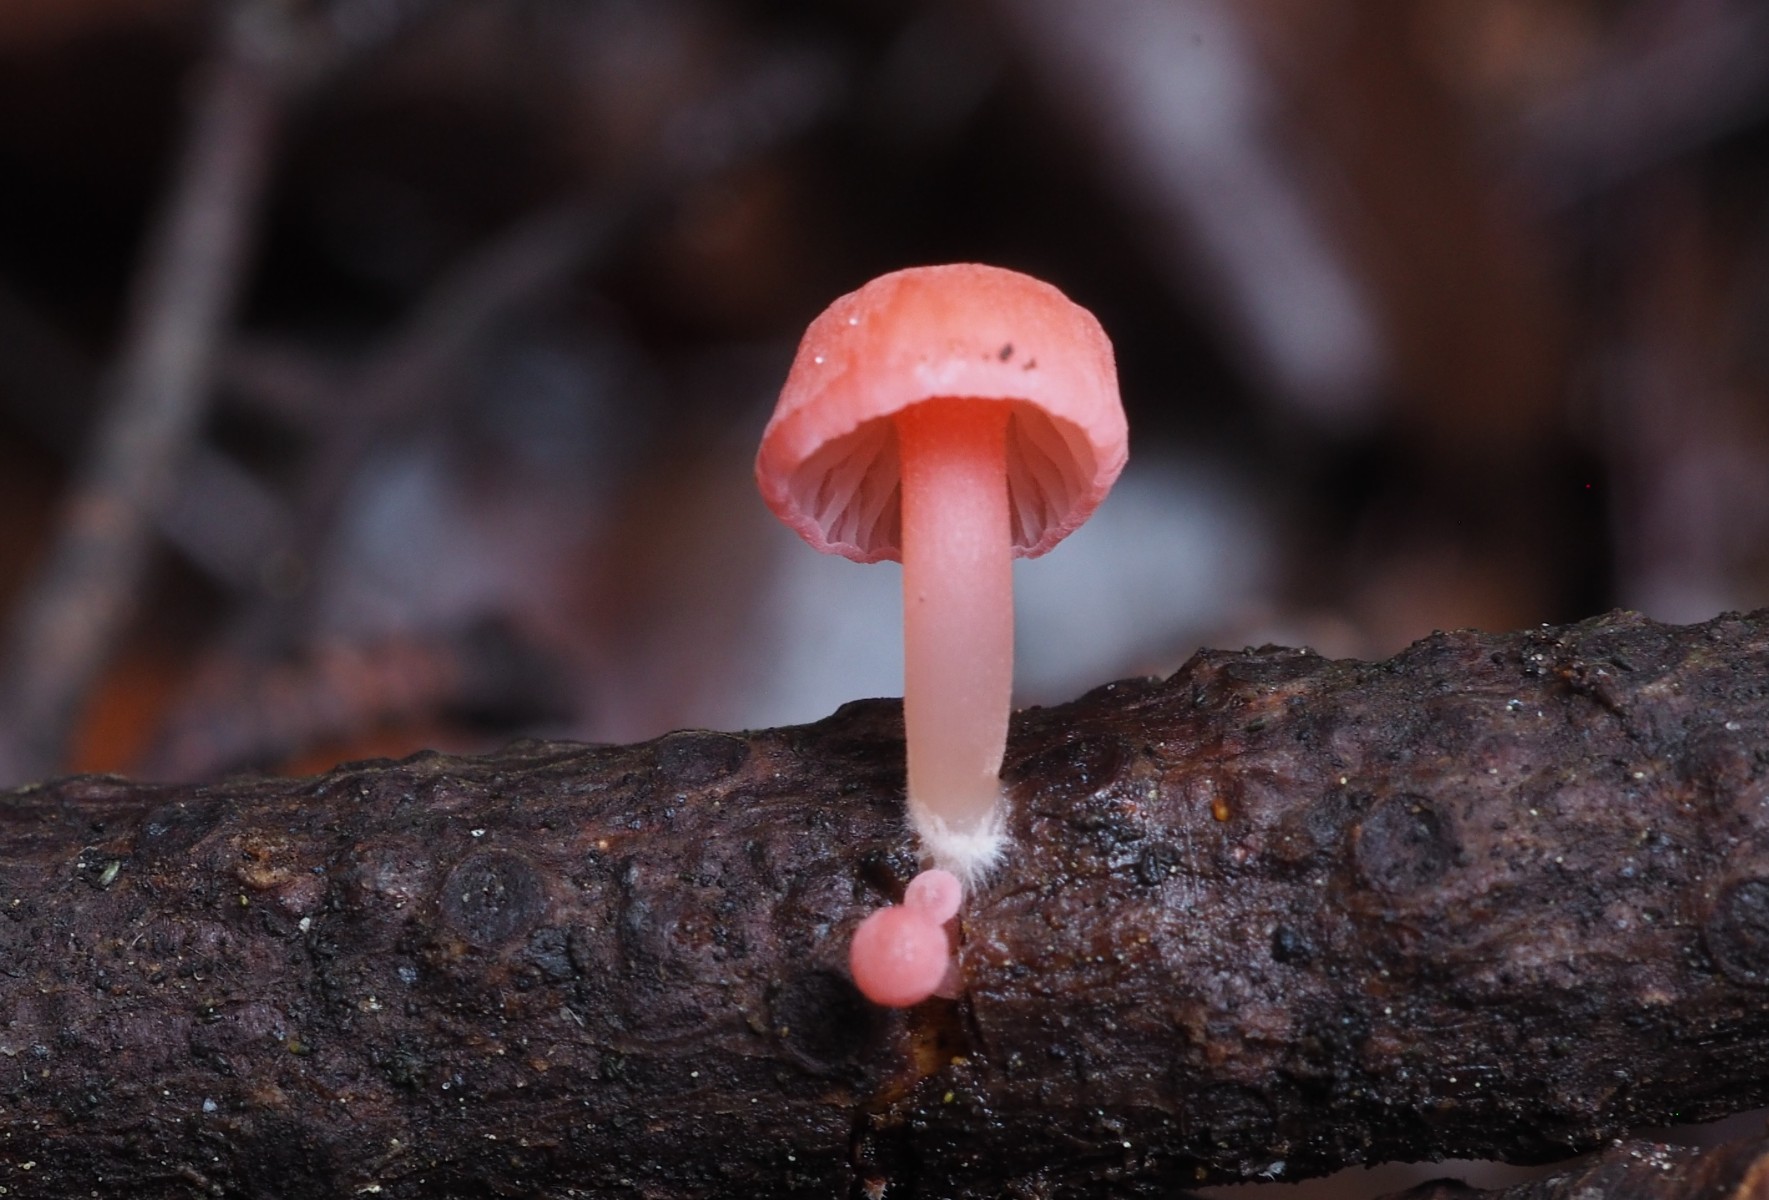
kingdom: Fungi
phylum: Basidiomycota
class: Agaricomycetes
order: Agaricales
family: Mycenaceae
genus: Mycena
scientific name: Mycena coccinea
